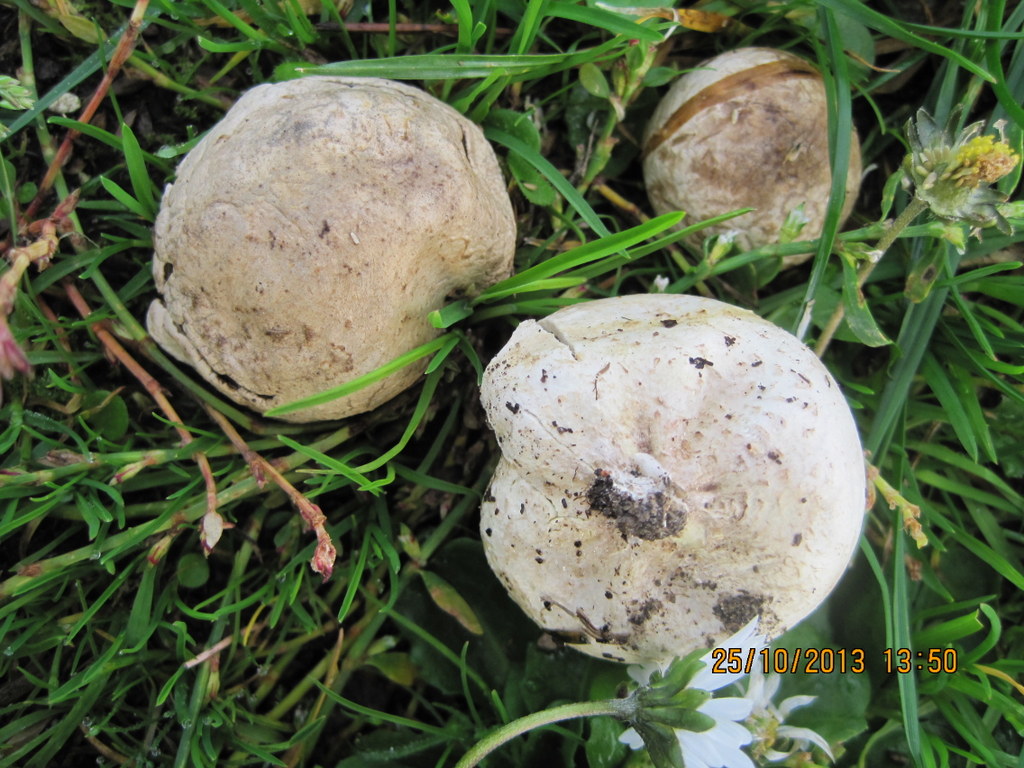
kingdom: Fungi
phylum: Basidiomycota
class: Agaricomycetes
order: Agaricales
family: Lycoperdaceae
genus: Bovista
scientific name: Bovista nigrescens
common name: sortagtig bovist
